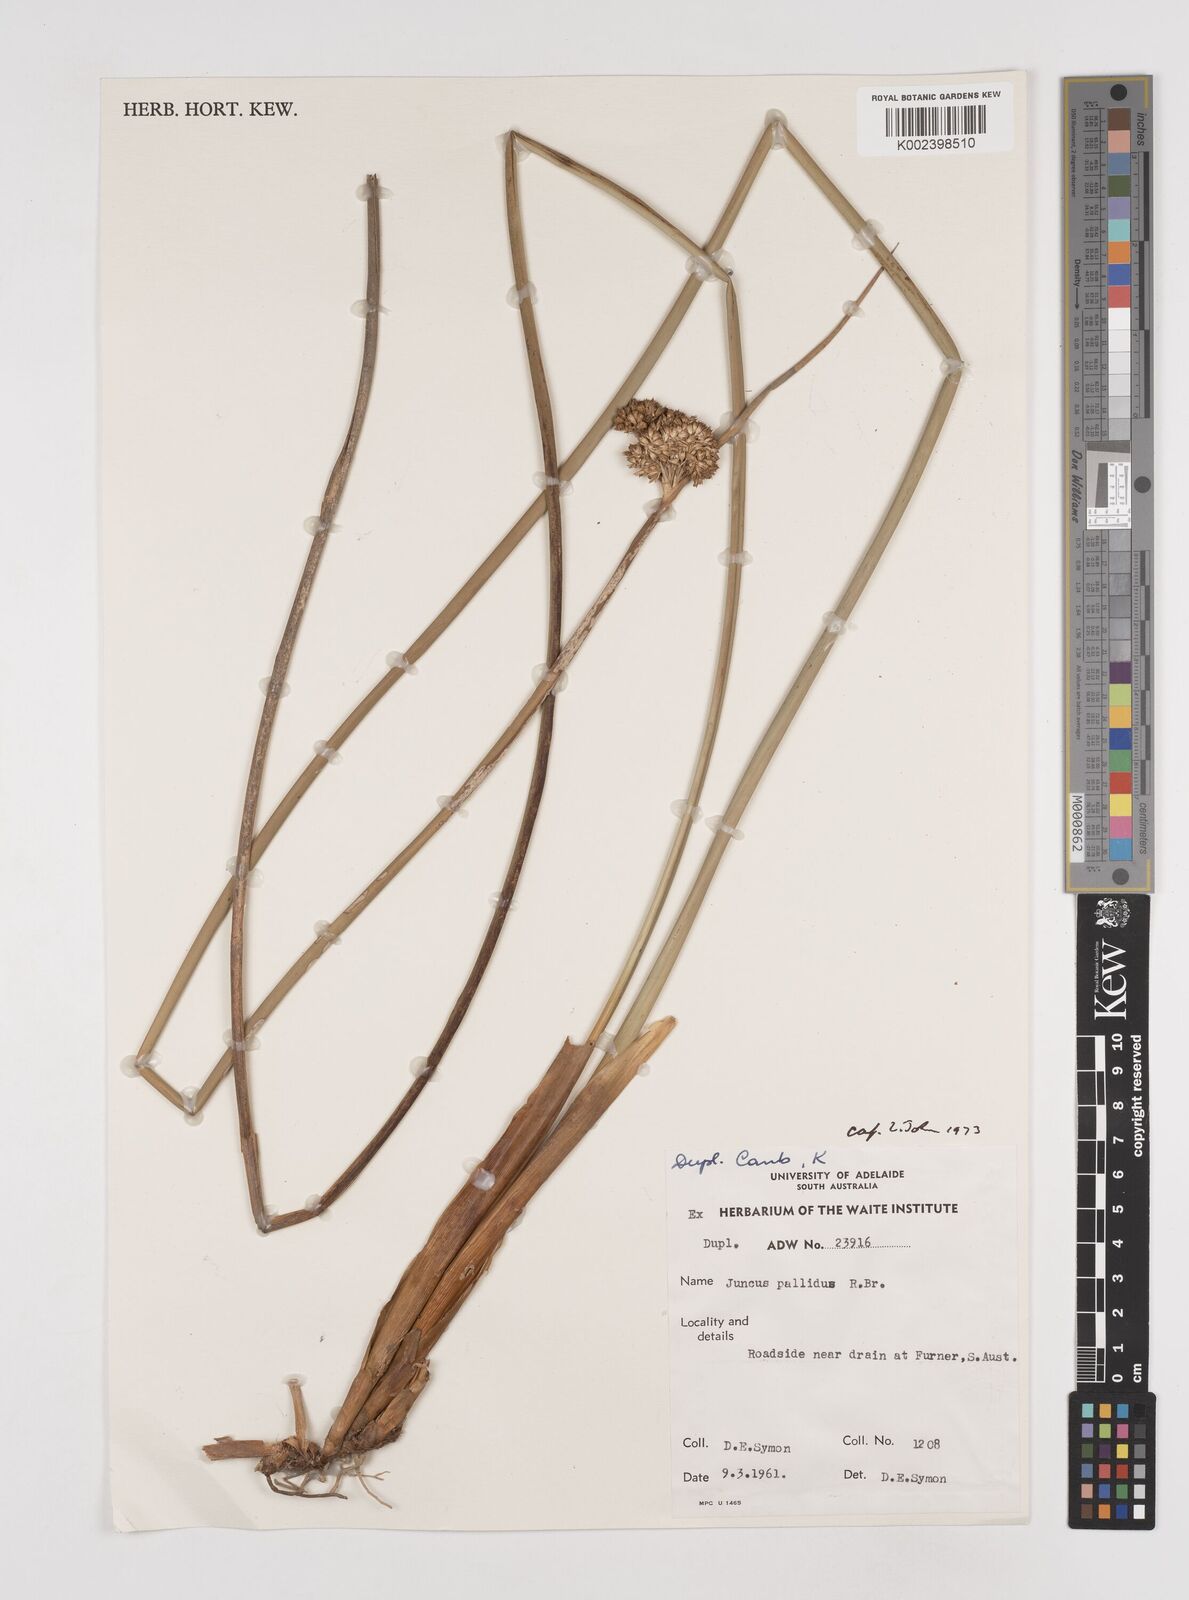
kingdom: Plantae
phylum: Tracheophyta
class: Liliopsida
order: Poales
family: Juncaceae
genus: Juncus
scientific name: Juncus pallidus
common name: Great soft-rush
